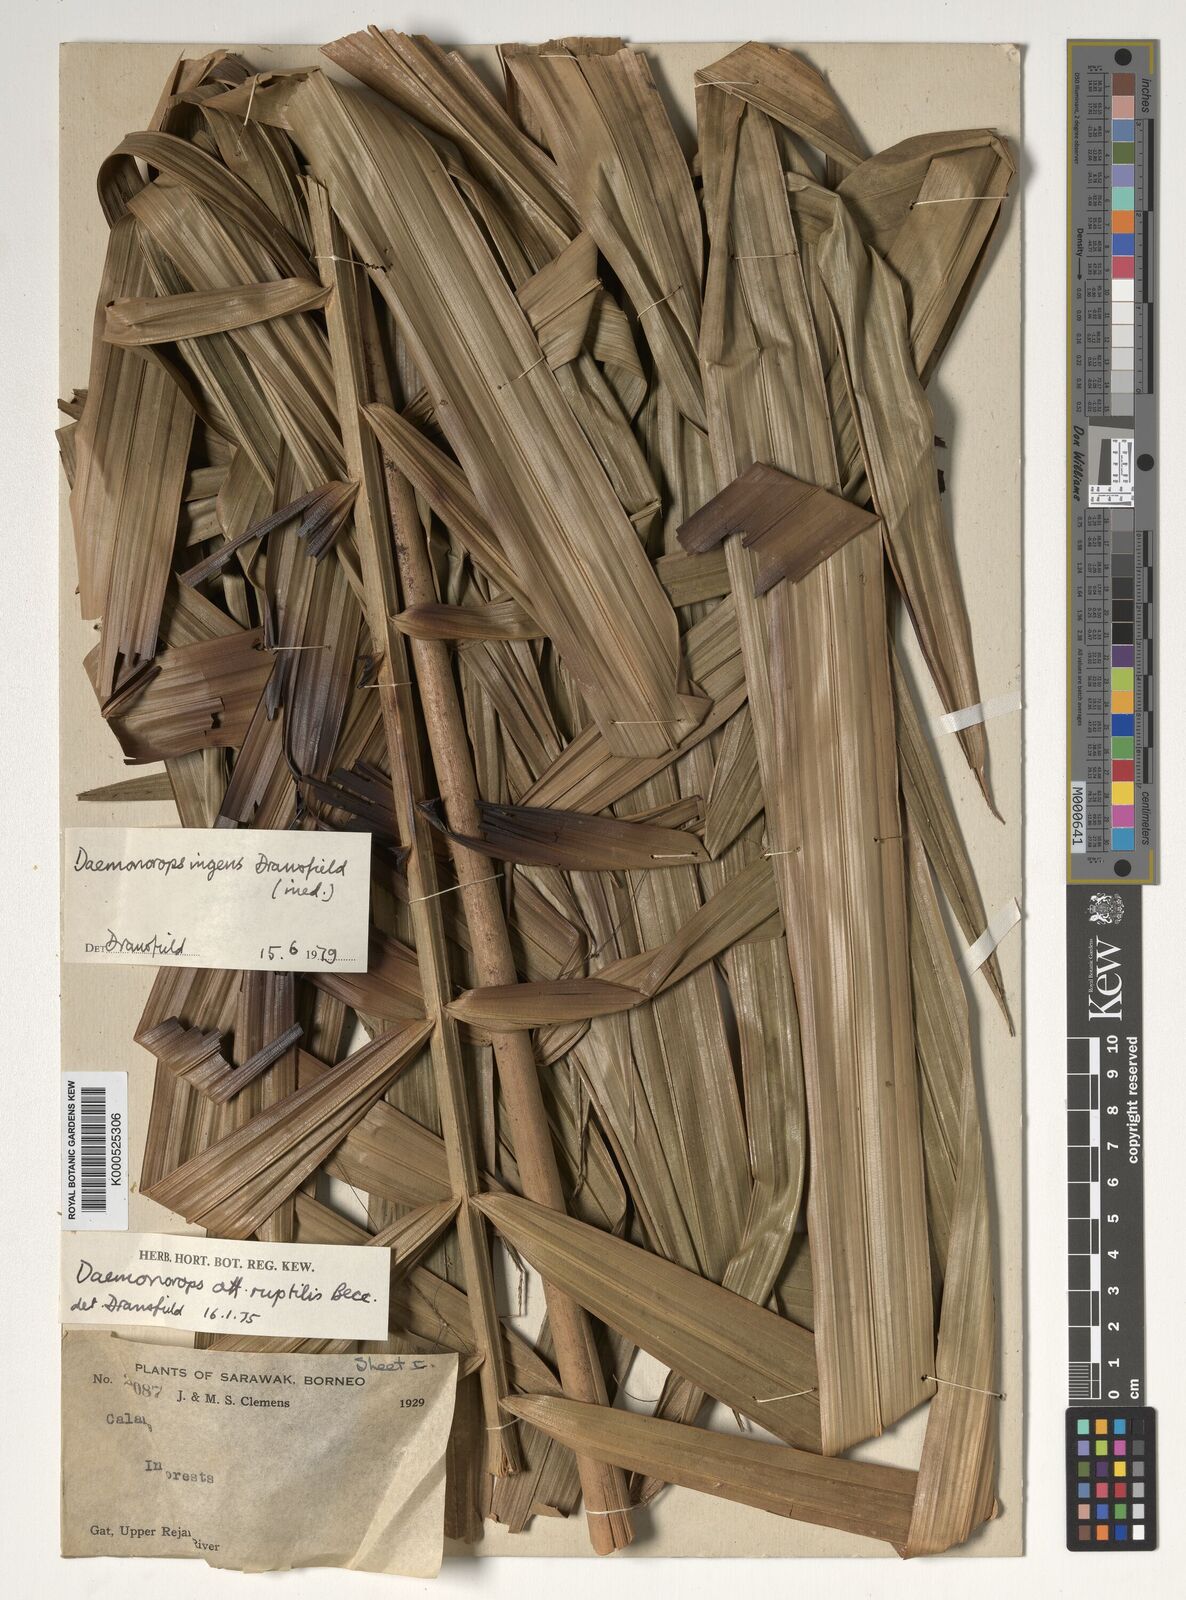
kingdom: Plantae
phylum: Tracheophyta
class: Liliopsida
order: Arecales
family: Arecaceae
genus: Calamus
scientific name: Calamus ingens
